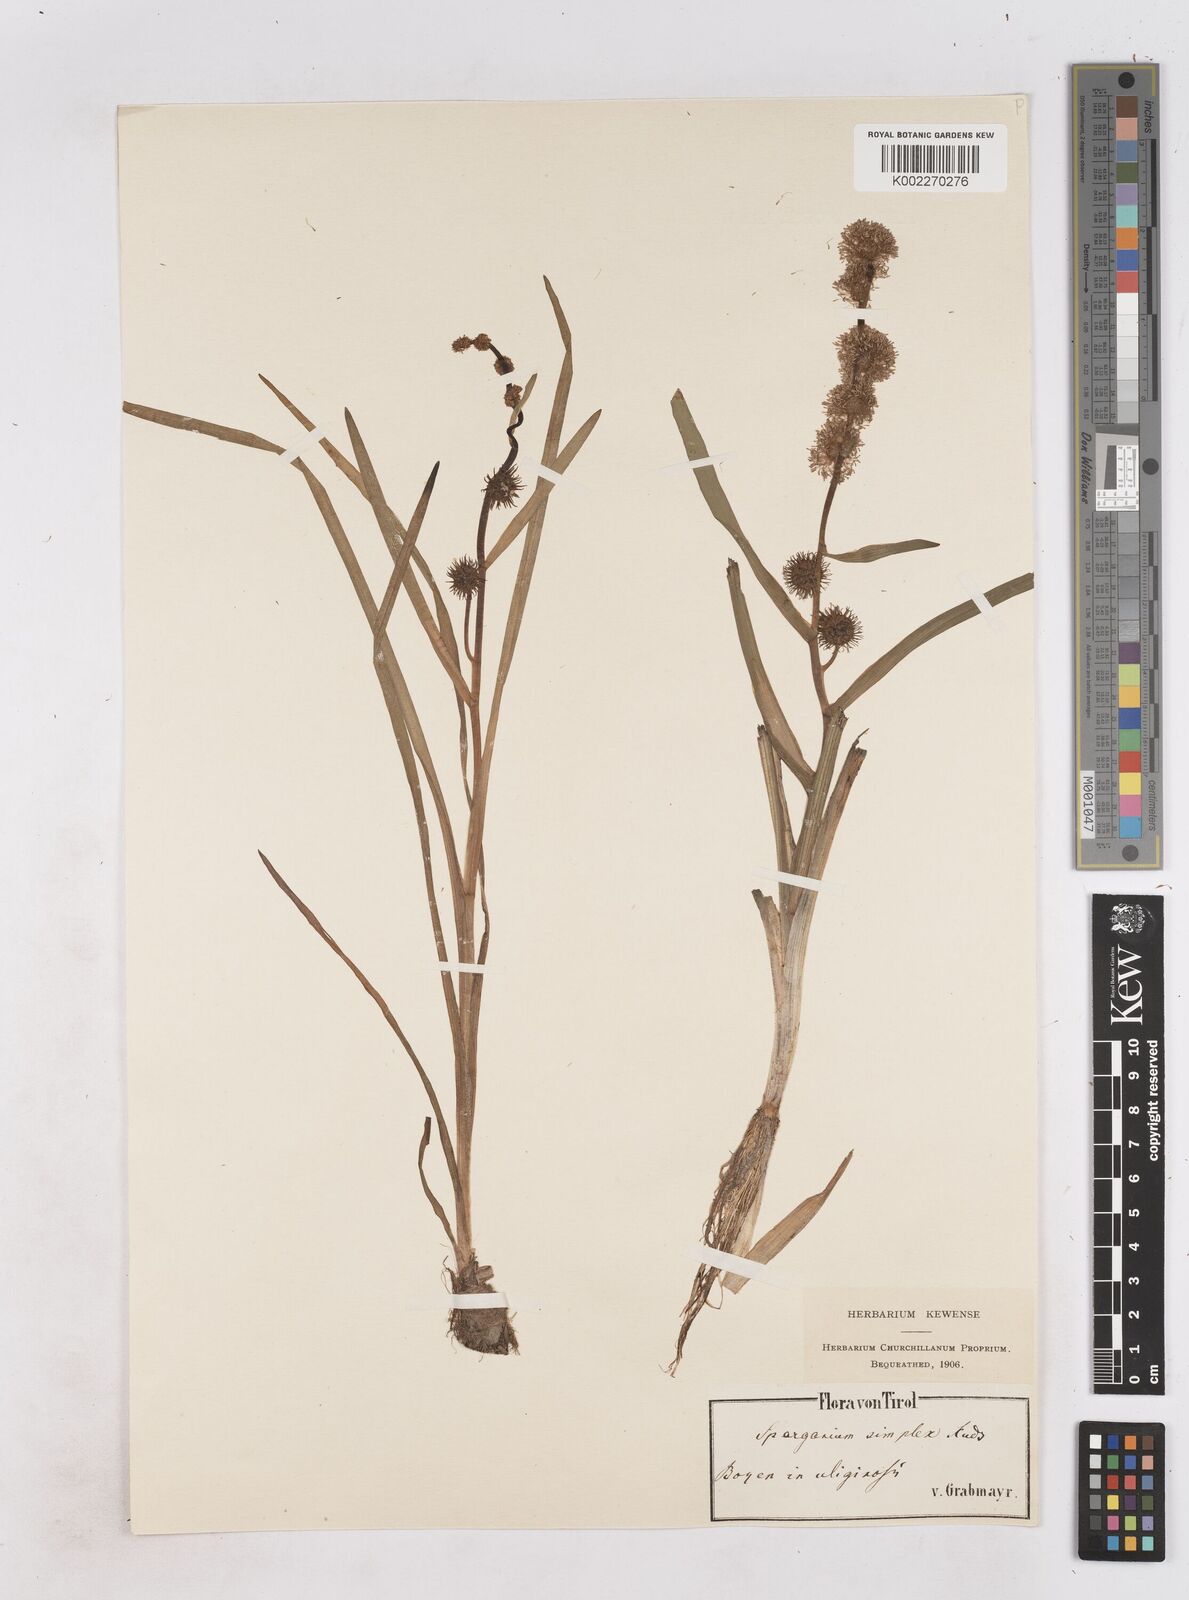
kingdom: Plantae
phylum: Tracheophyta
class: Liliopsida
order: Poales
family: Typhaceae
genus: Sparganium
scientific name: Sparganium emersum
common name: Unbranched bur-reed
